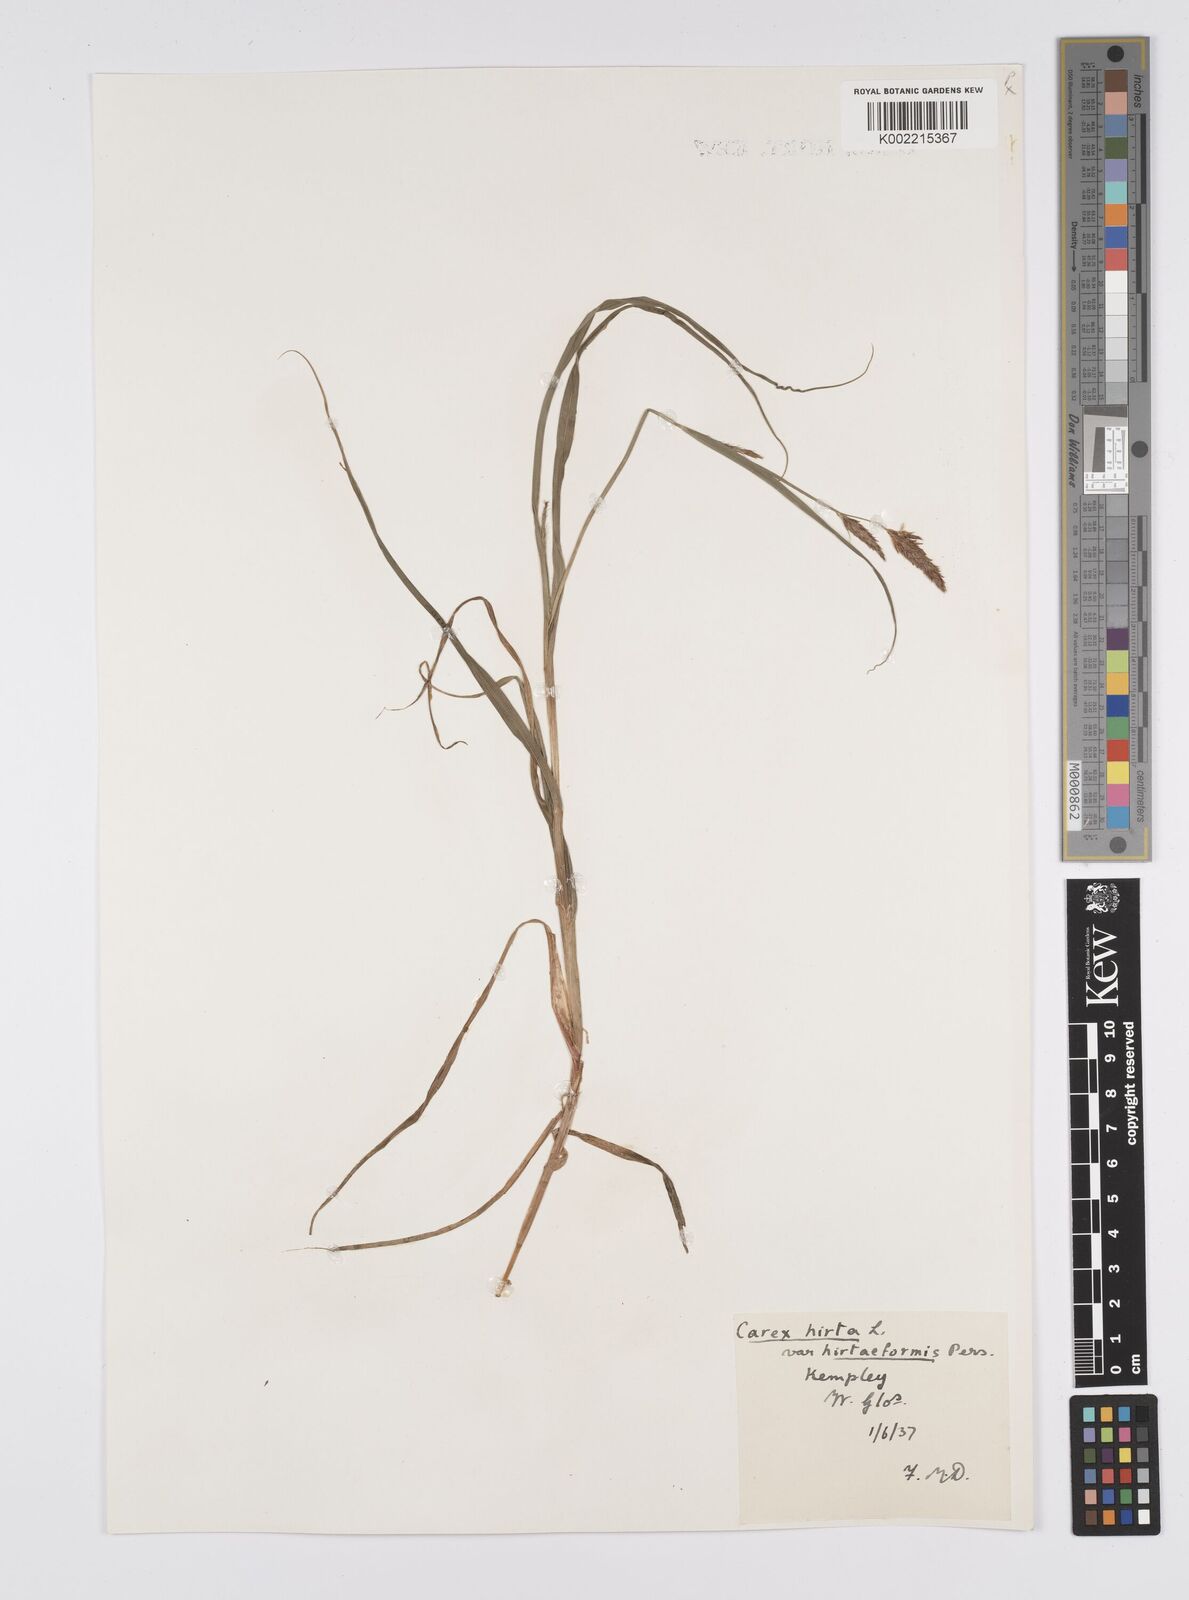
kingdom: Plantae
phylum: Tracheophyta
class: Liliopsida
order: Poales
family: Cyperaceae
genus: Carex
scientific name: Carex hirta
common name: Hairy sedge
